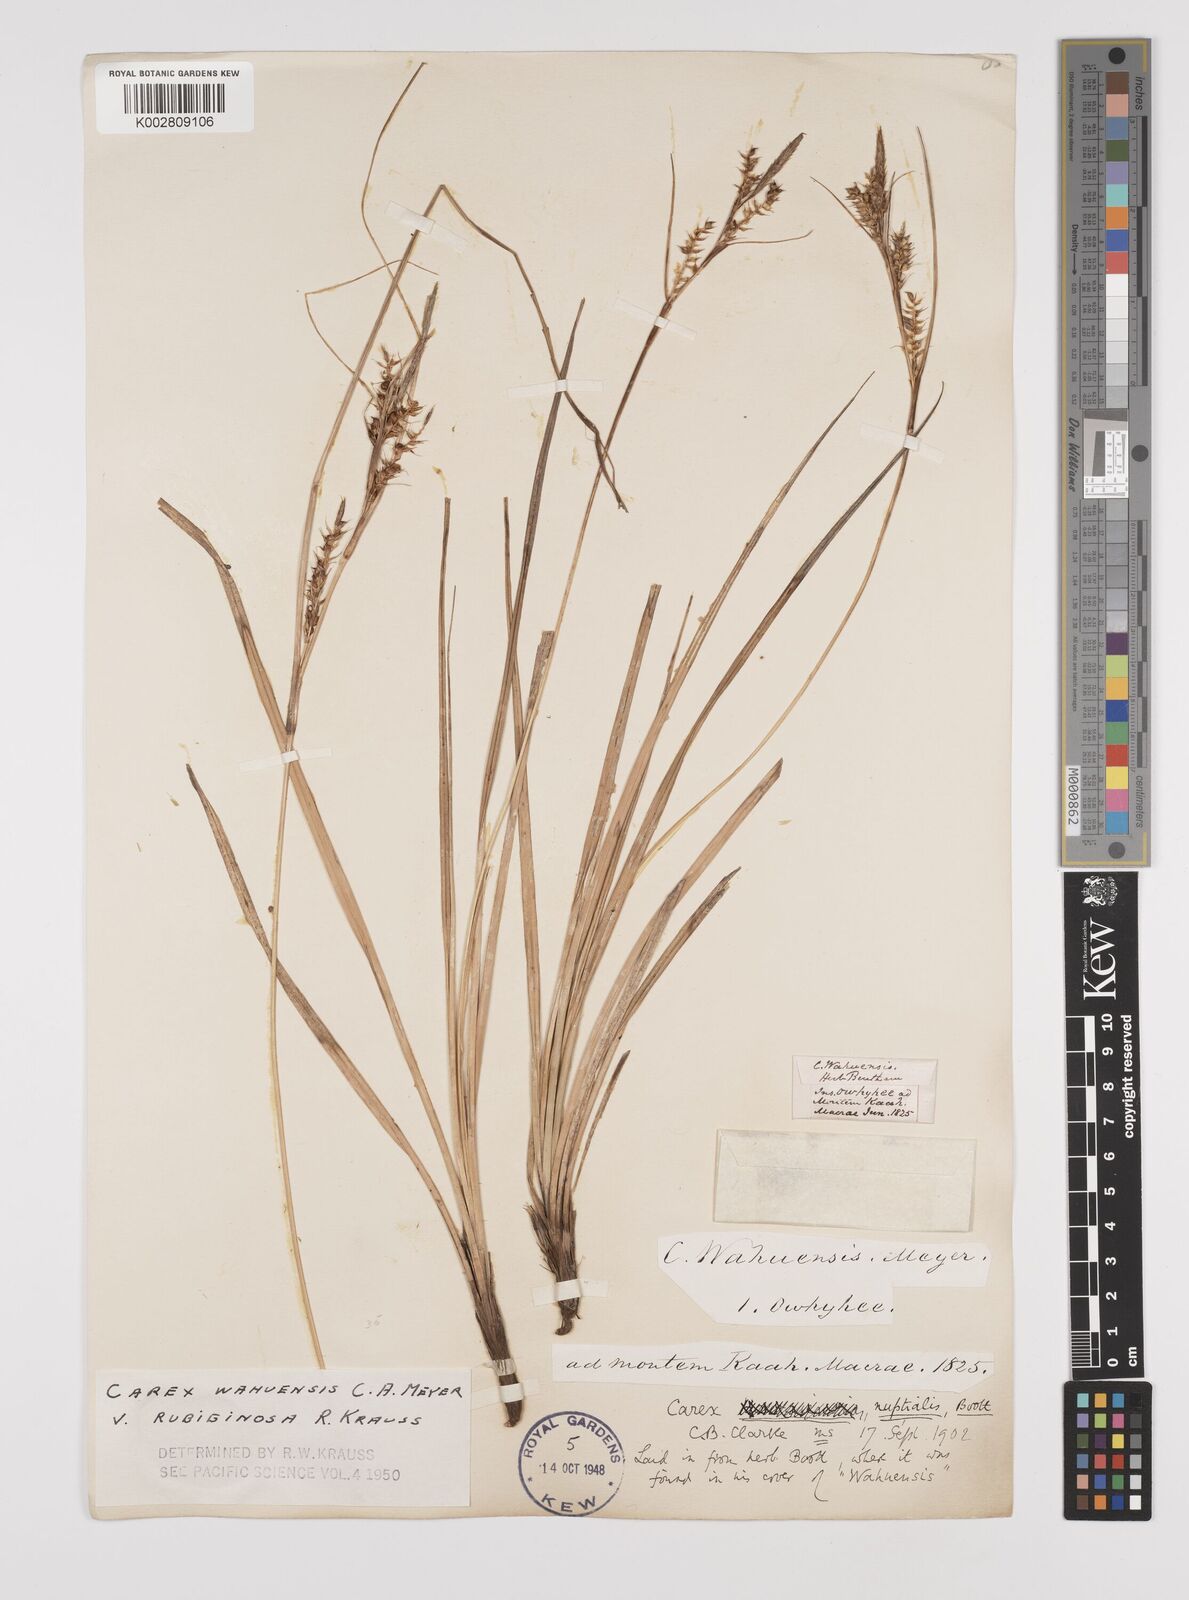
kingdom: Plantae
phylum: Tracheophyta
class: Liliopsida
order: Poales
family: Cyperaceae
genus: Carex
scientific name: Carex wahuensis
